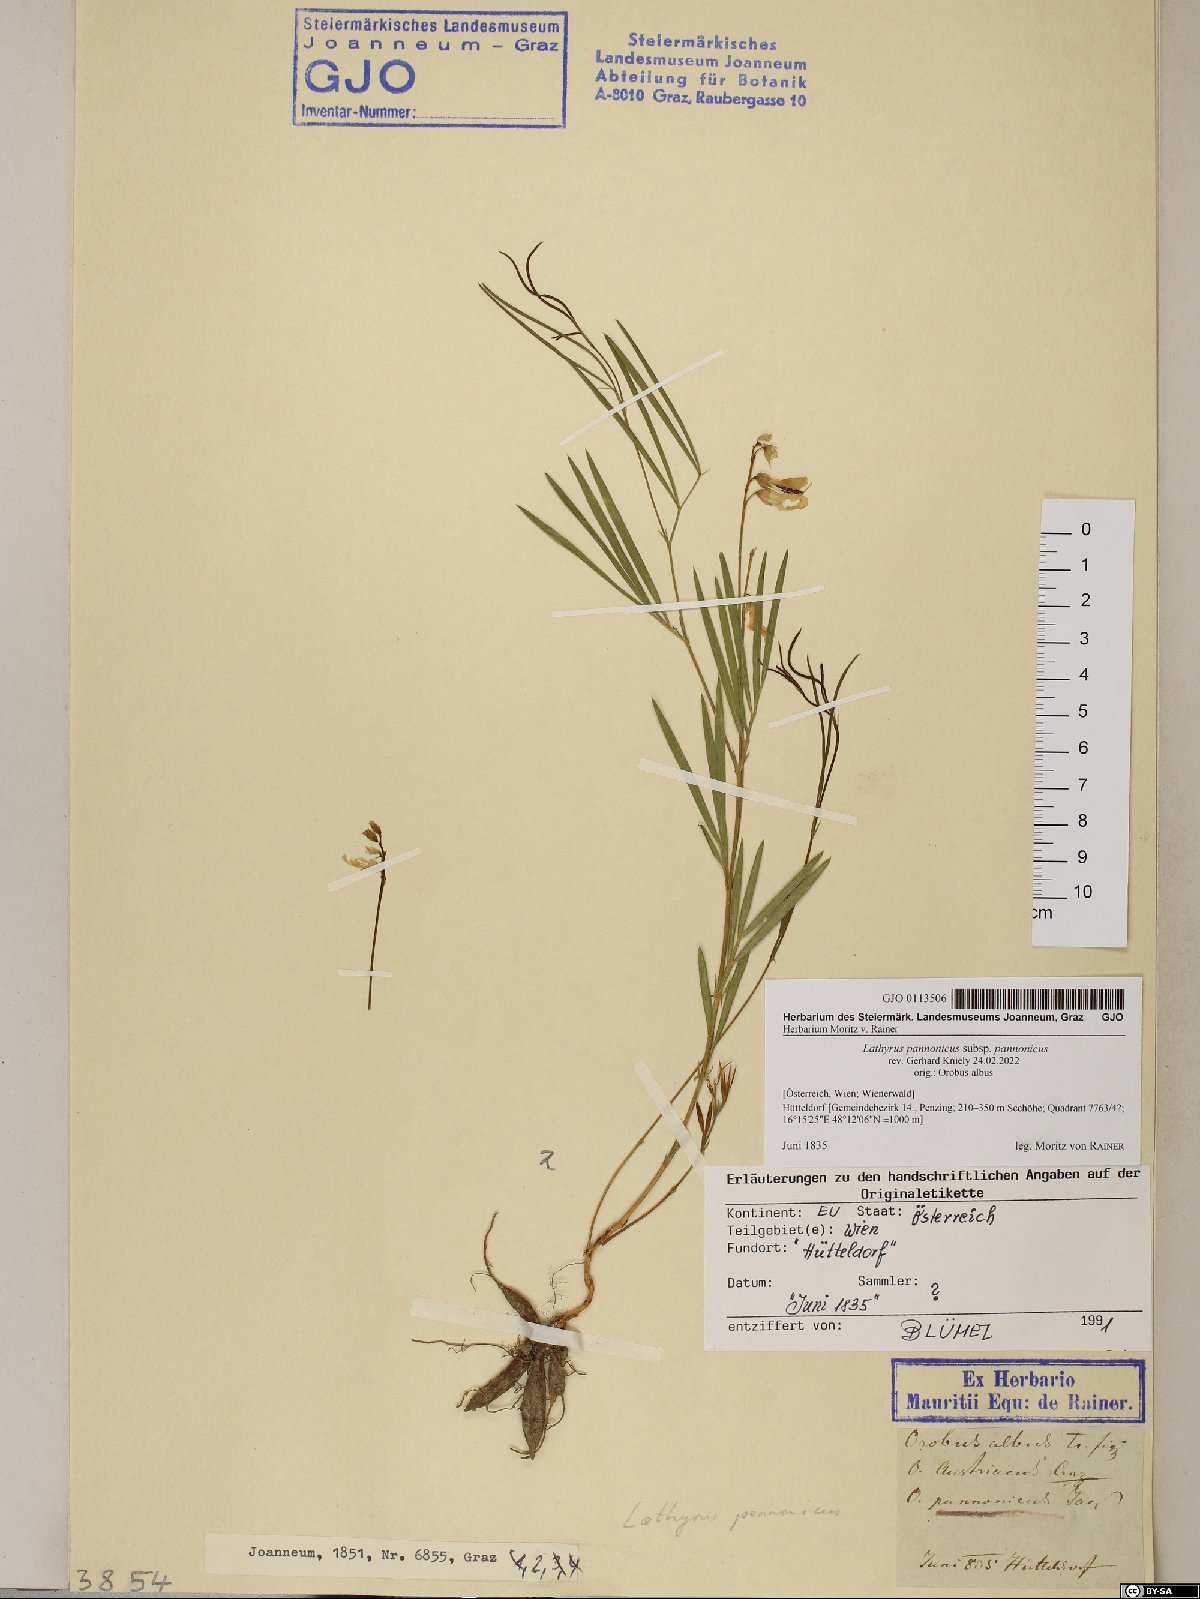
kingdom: Plantae
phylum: Tracheophyta
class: Magnoliopsida
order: Fabales
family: Fabaceae
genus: Lathyrus
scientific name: Lathyrus pannonicus
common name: Pea
